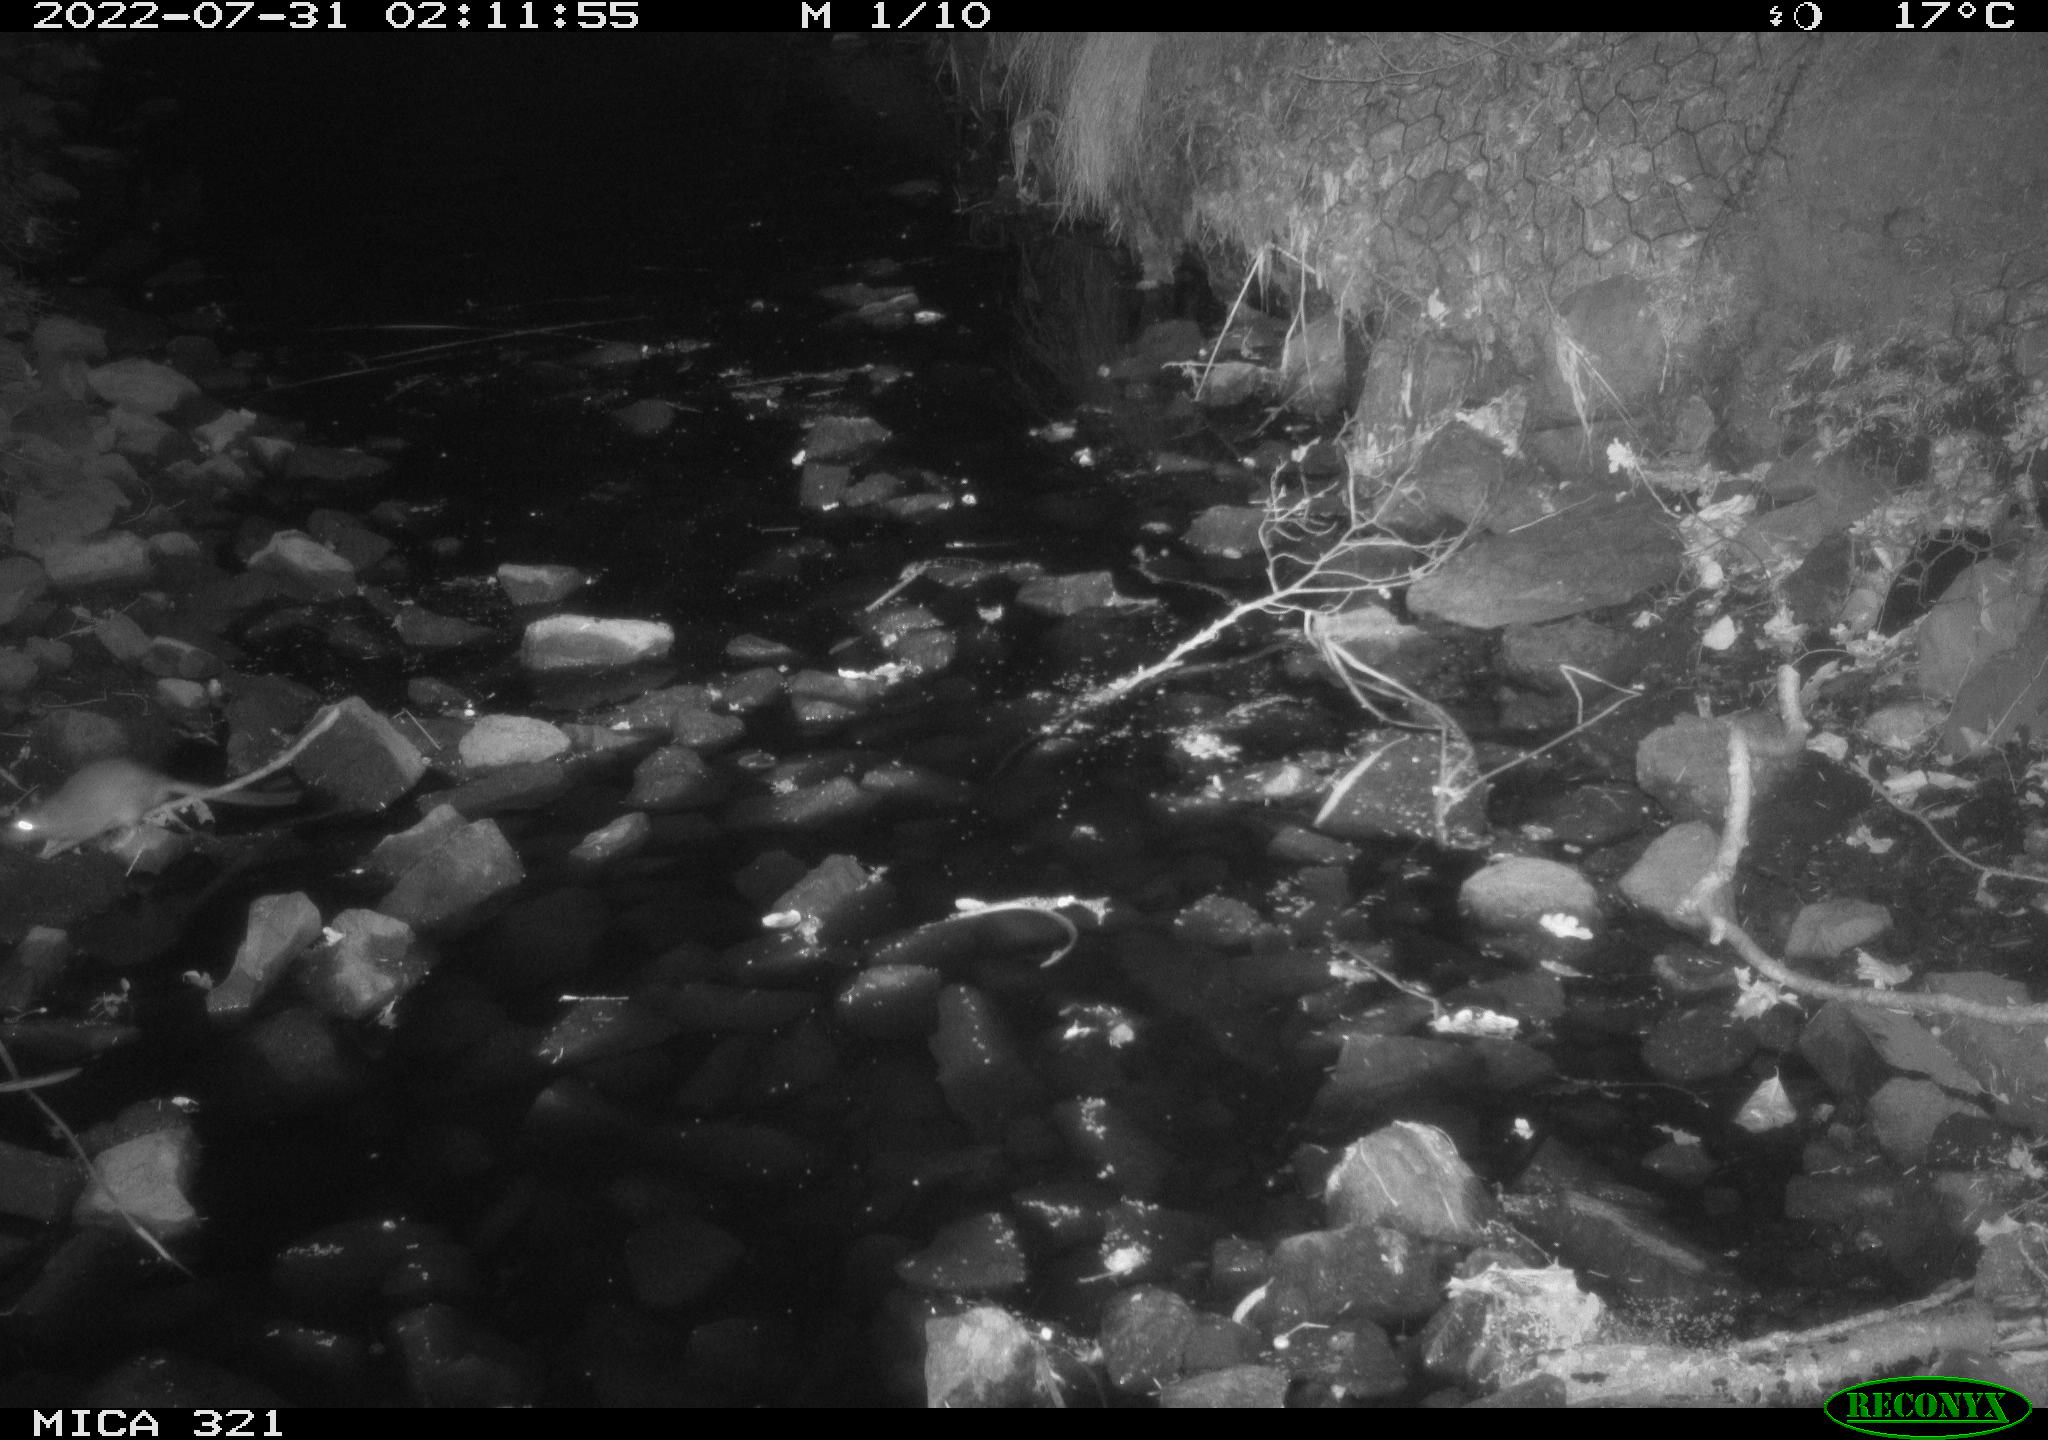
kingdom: Animalia
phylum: Chordata
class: Mammalia
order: Rodentia
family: Muridae
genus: Rattus
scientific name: Rattus norvegicus
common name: Brown rat
